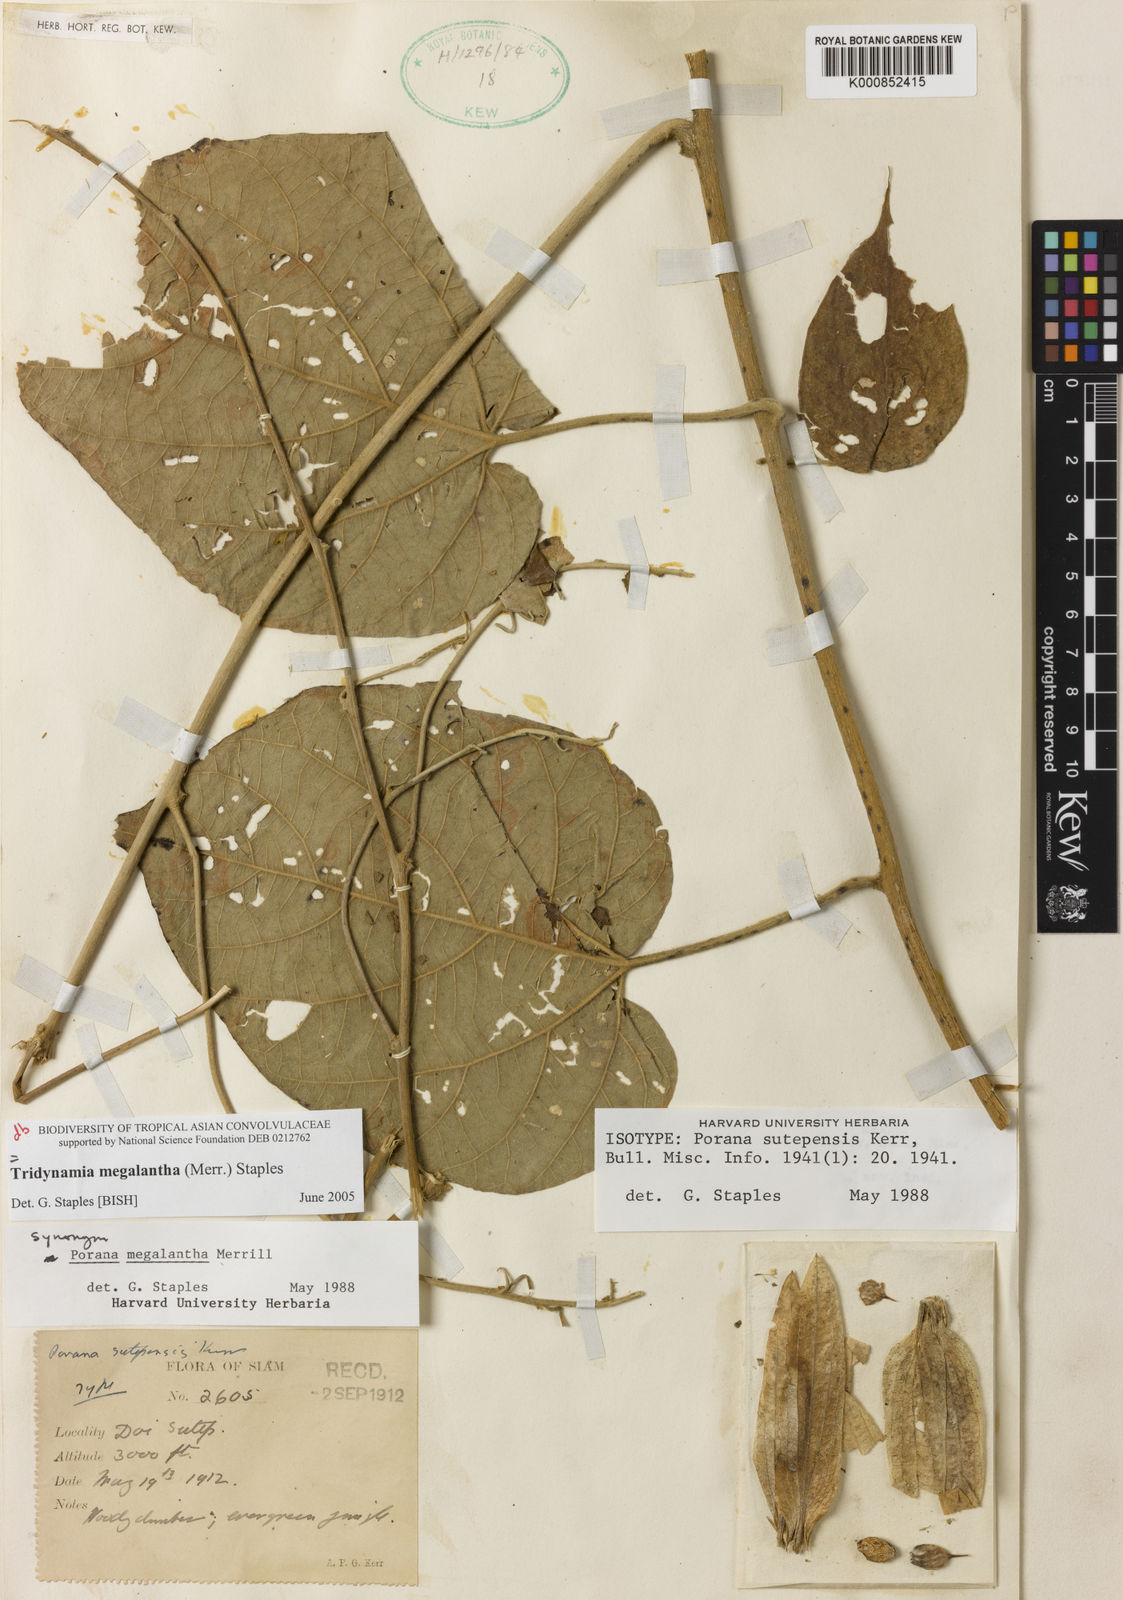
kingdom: Plantae
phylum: Tracheophyta
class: Magnoliopsida
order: Solanales
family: Convolvulaceae
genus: Tridynamia
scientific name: Tridynamia megalantha
